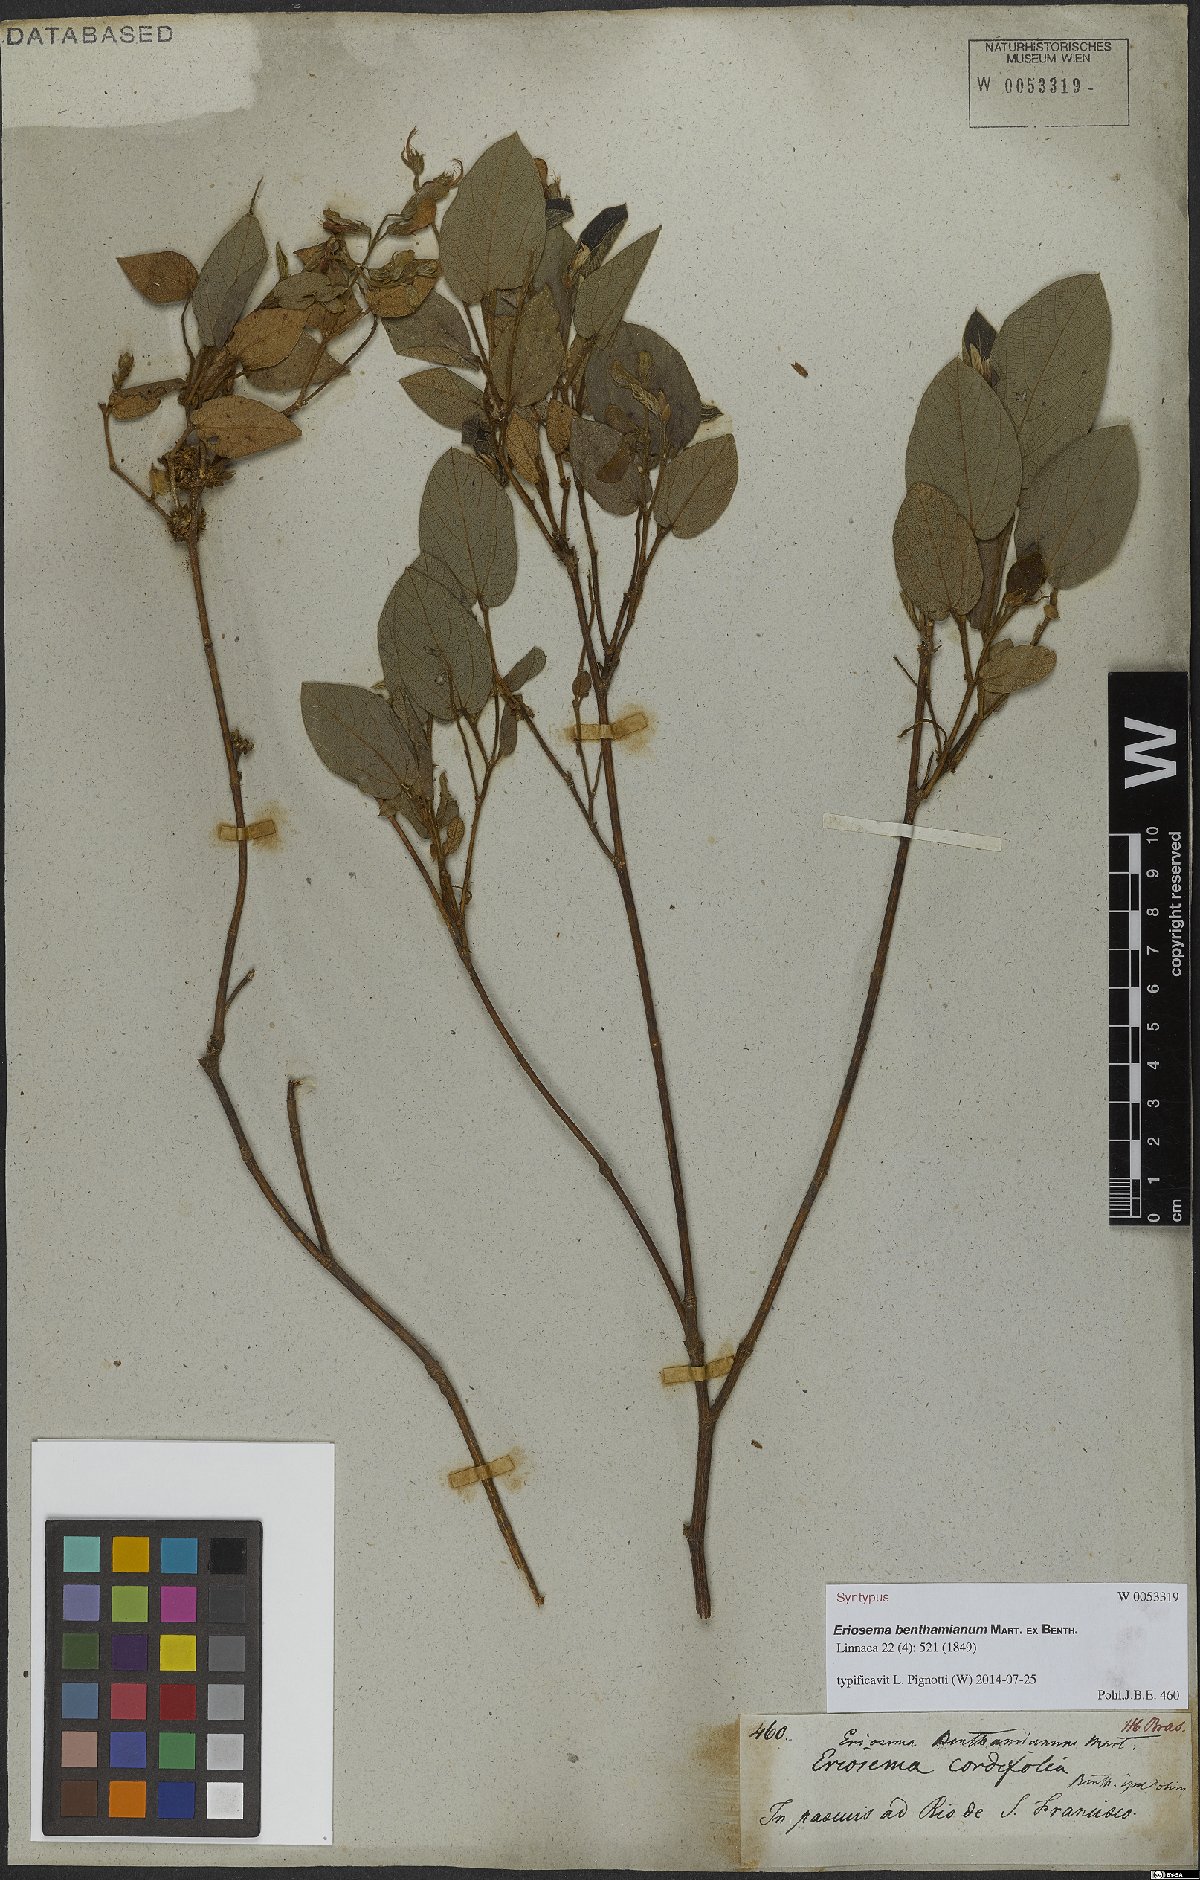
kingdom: Plantae
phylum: Tracheophyta
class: Magnoliopsida
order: Fabales
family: Fabaceae
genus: Eriosema
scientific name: Eriosema benthamianum
